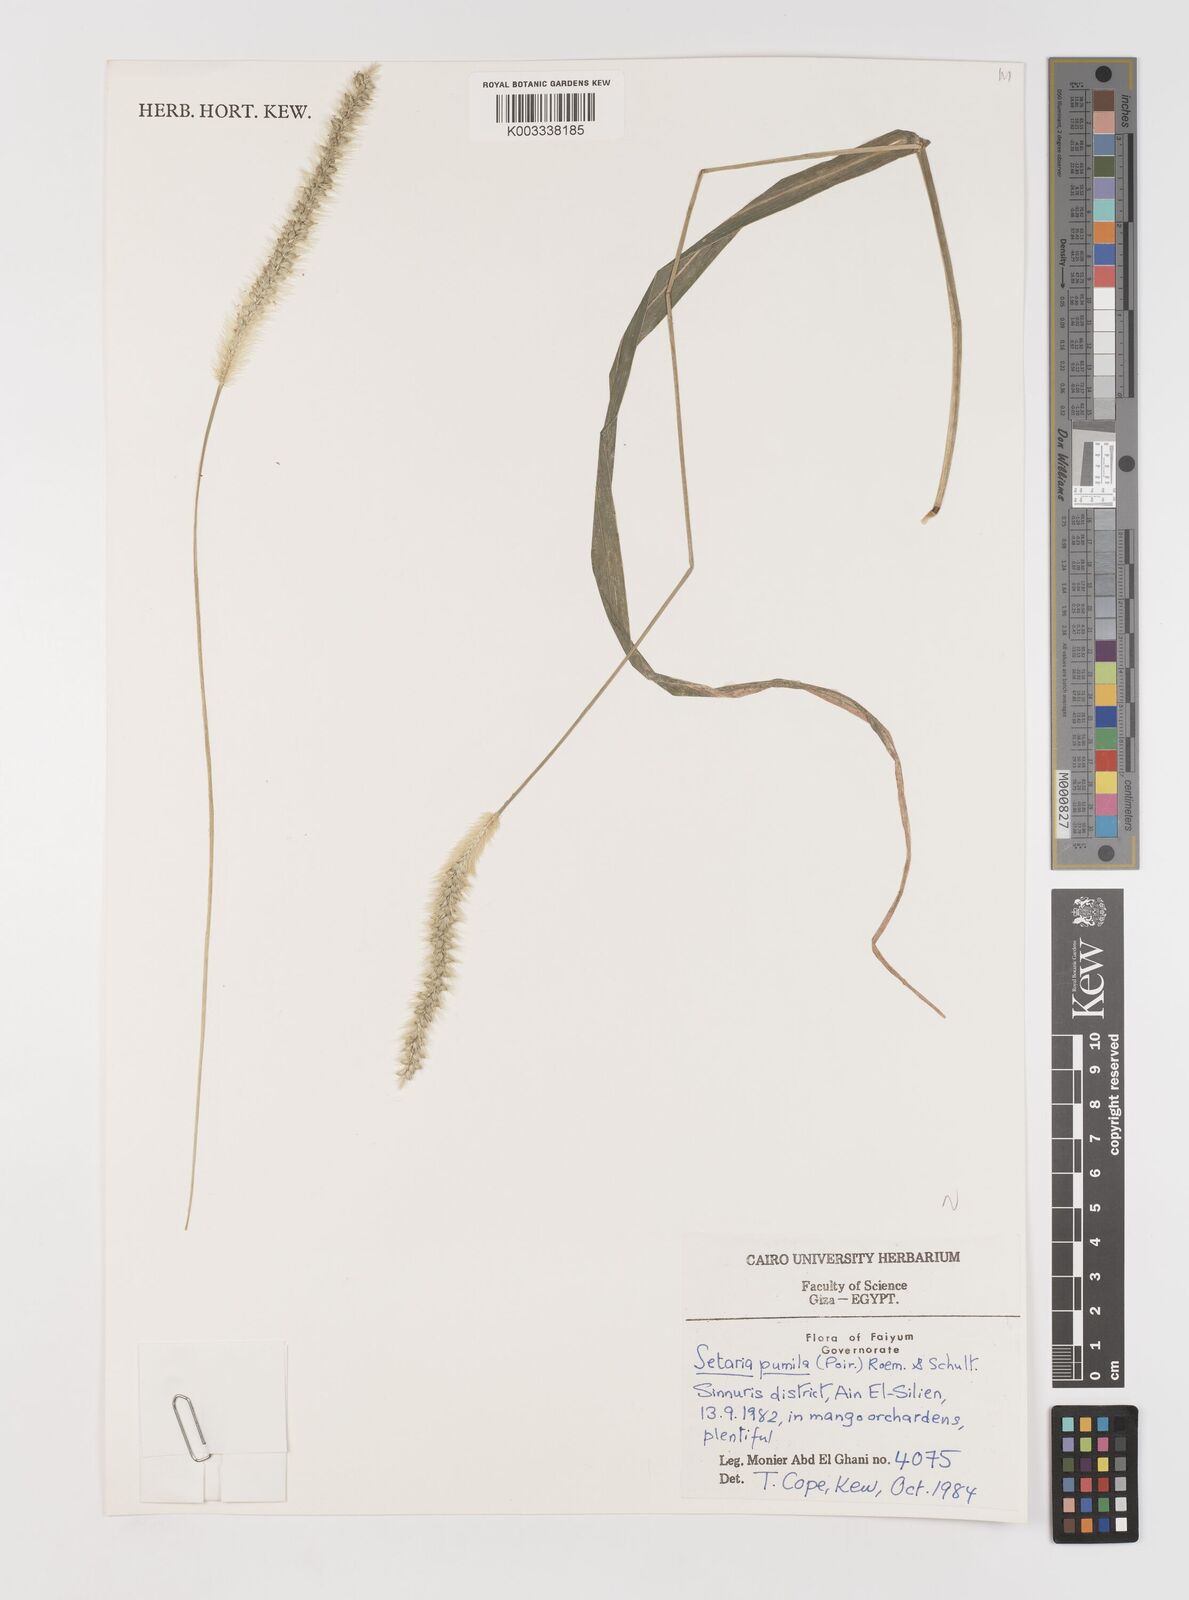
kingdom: Plantae
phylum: Tracheophyta
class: Liliopsida
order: Poales
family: Poaceae
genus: Setaria
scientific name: Setaria pumila
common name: Yellow bristle-grass
